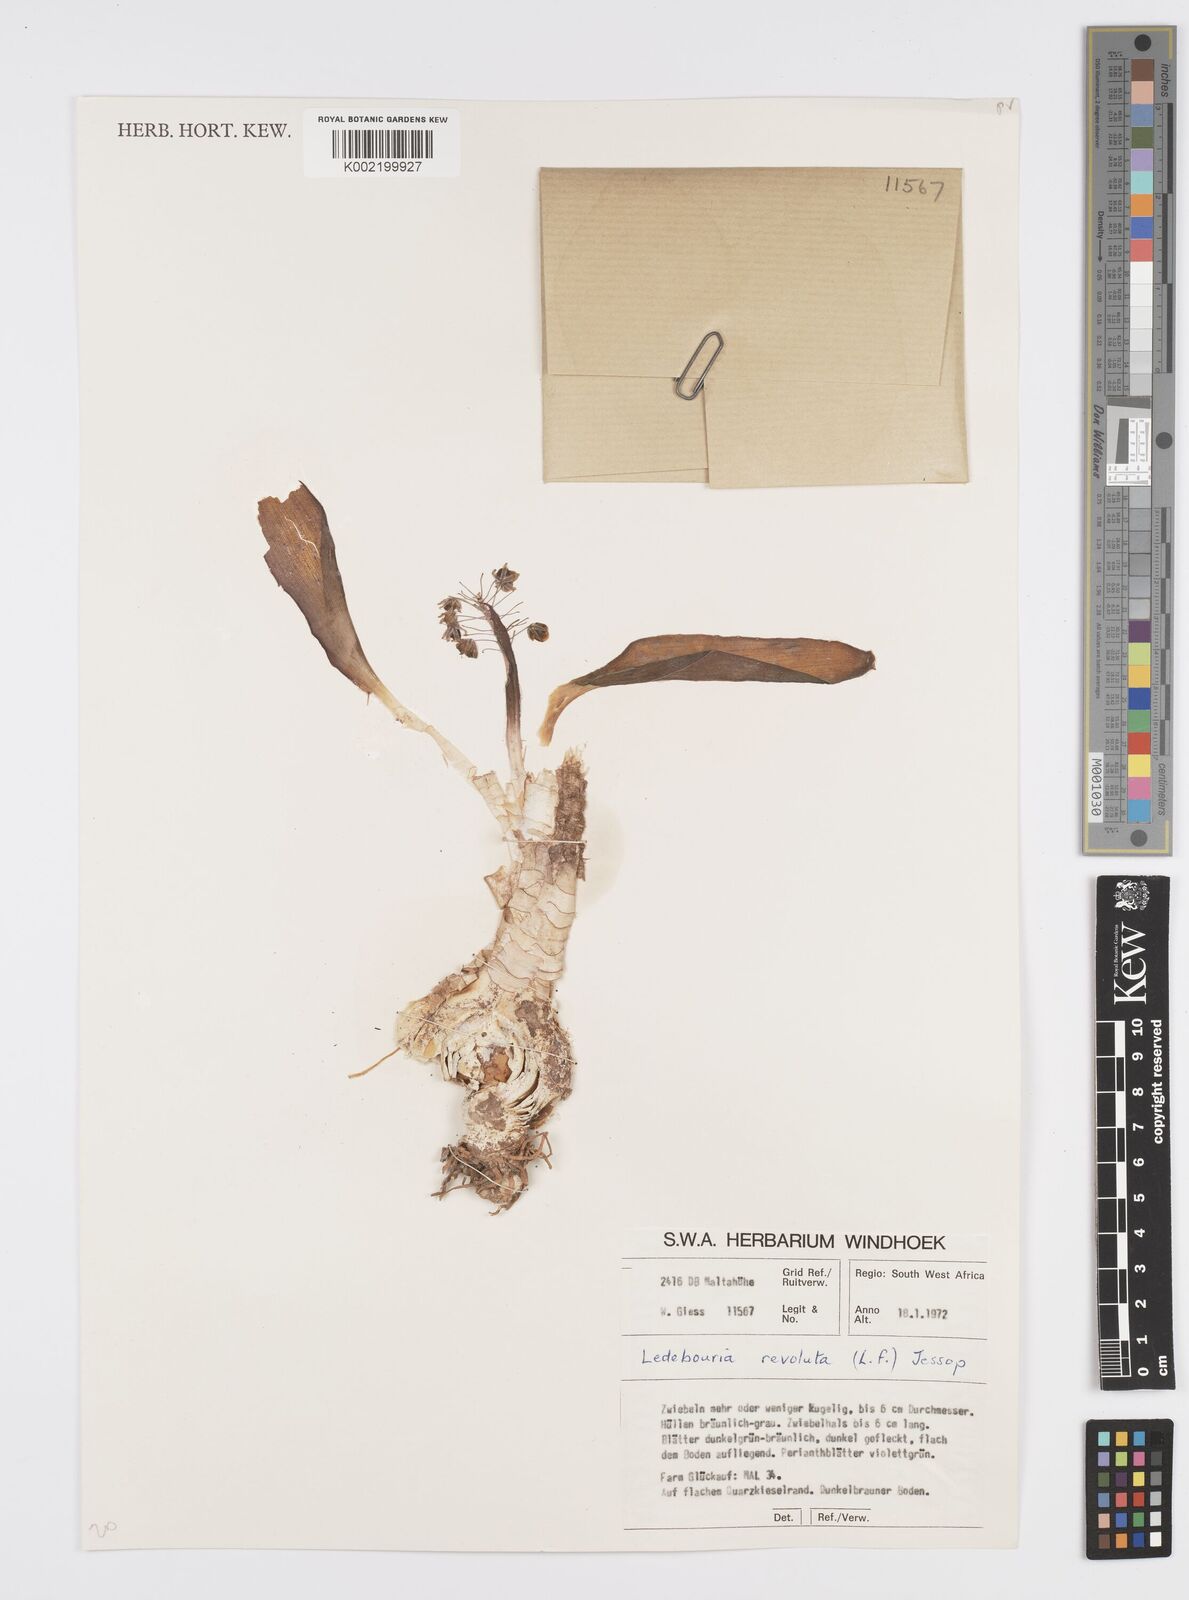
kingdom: Plantae
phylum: Tracheophyta
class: Liliopsida
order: Asparagales
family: Asparagaceae
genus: Ledebouria
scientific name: Ledebouria revoluta
